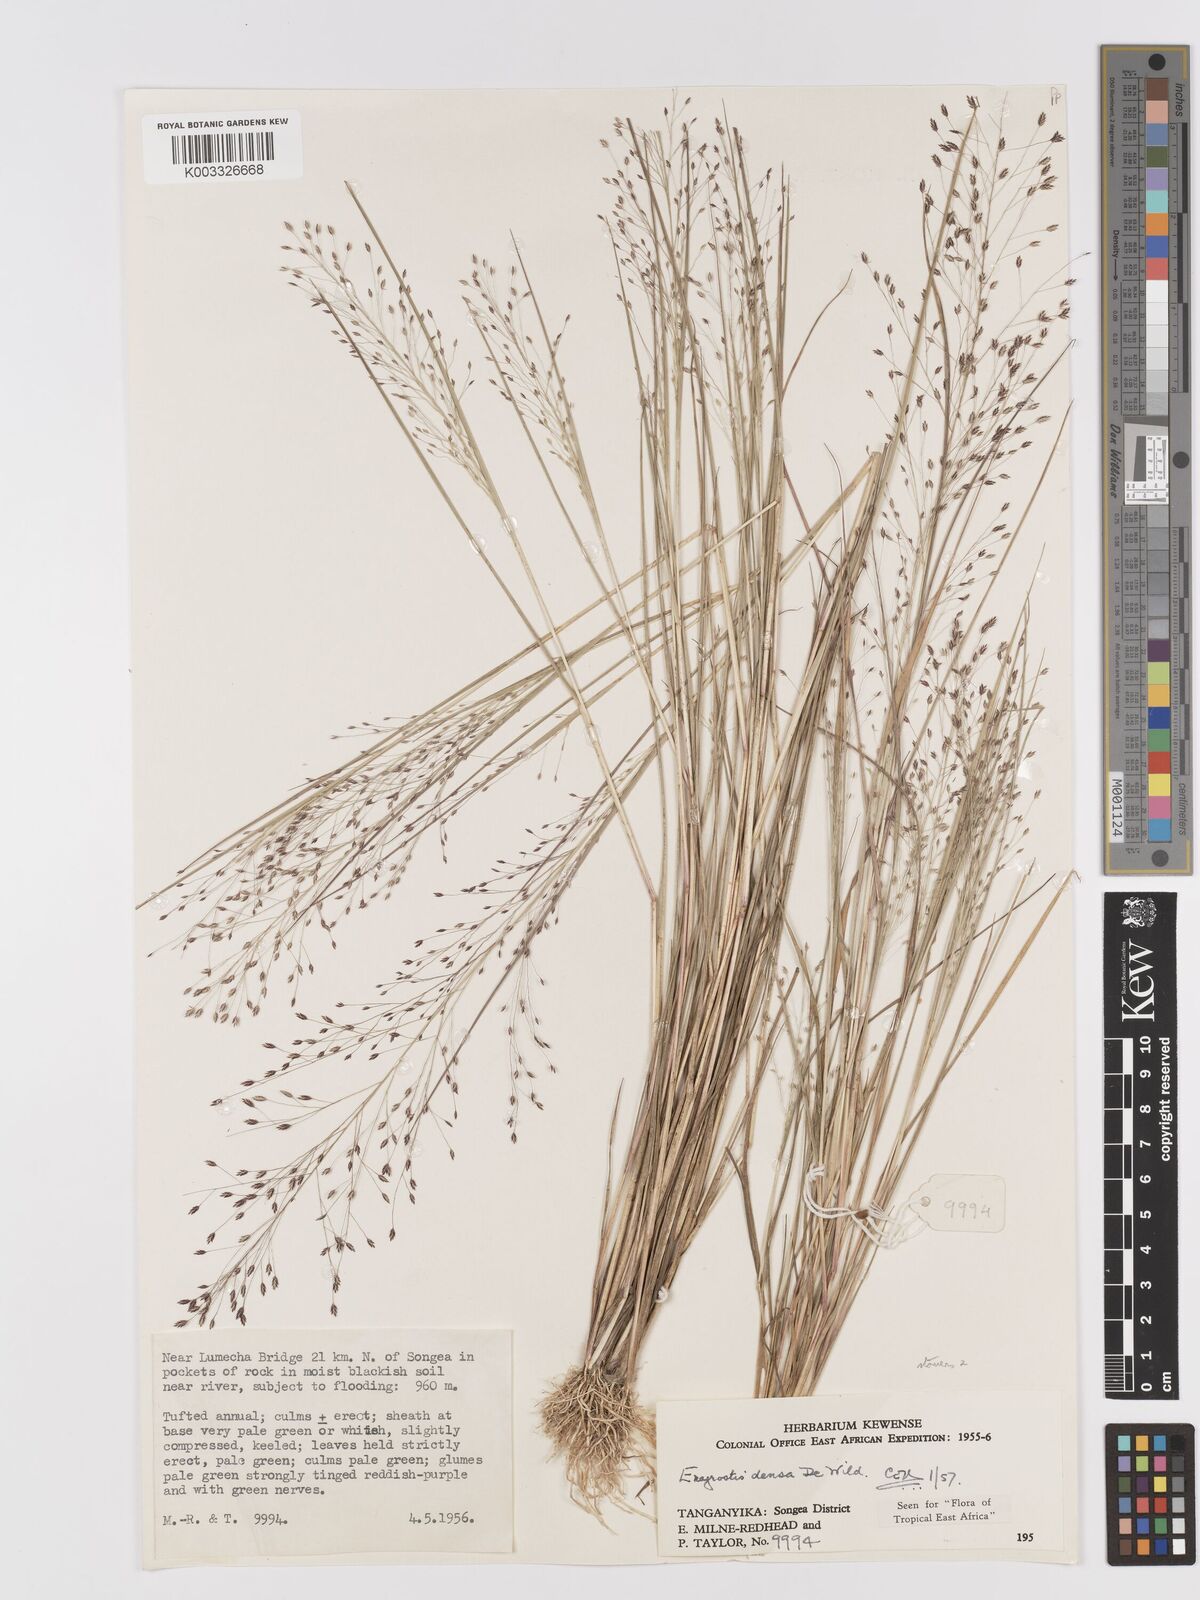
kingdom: Plantae
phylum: Tracheophyta
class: Liliopsida
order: Poales
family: Poaceae
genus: Eragrostis
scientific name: Eragrostis welwitschii
